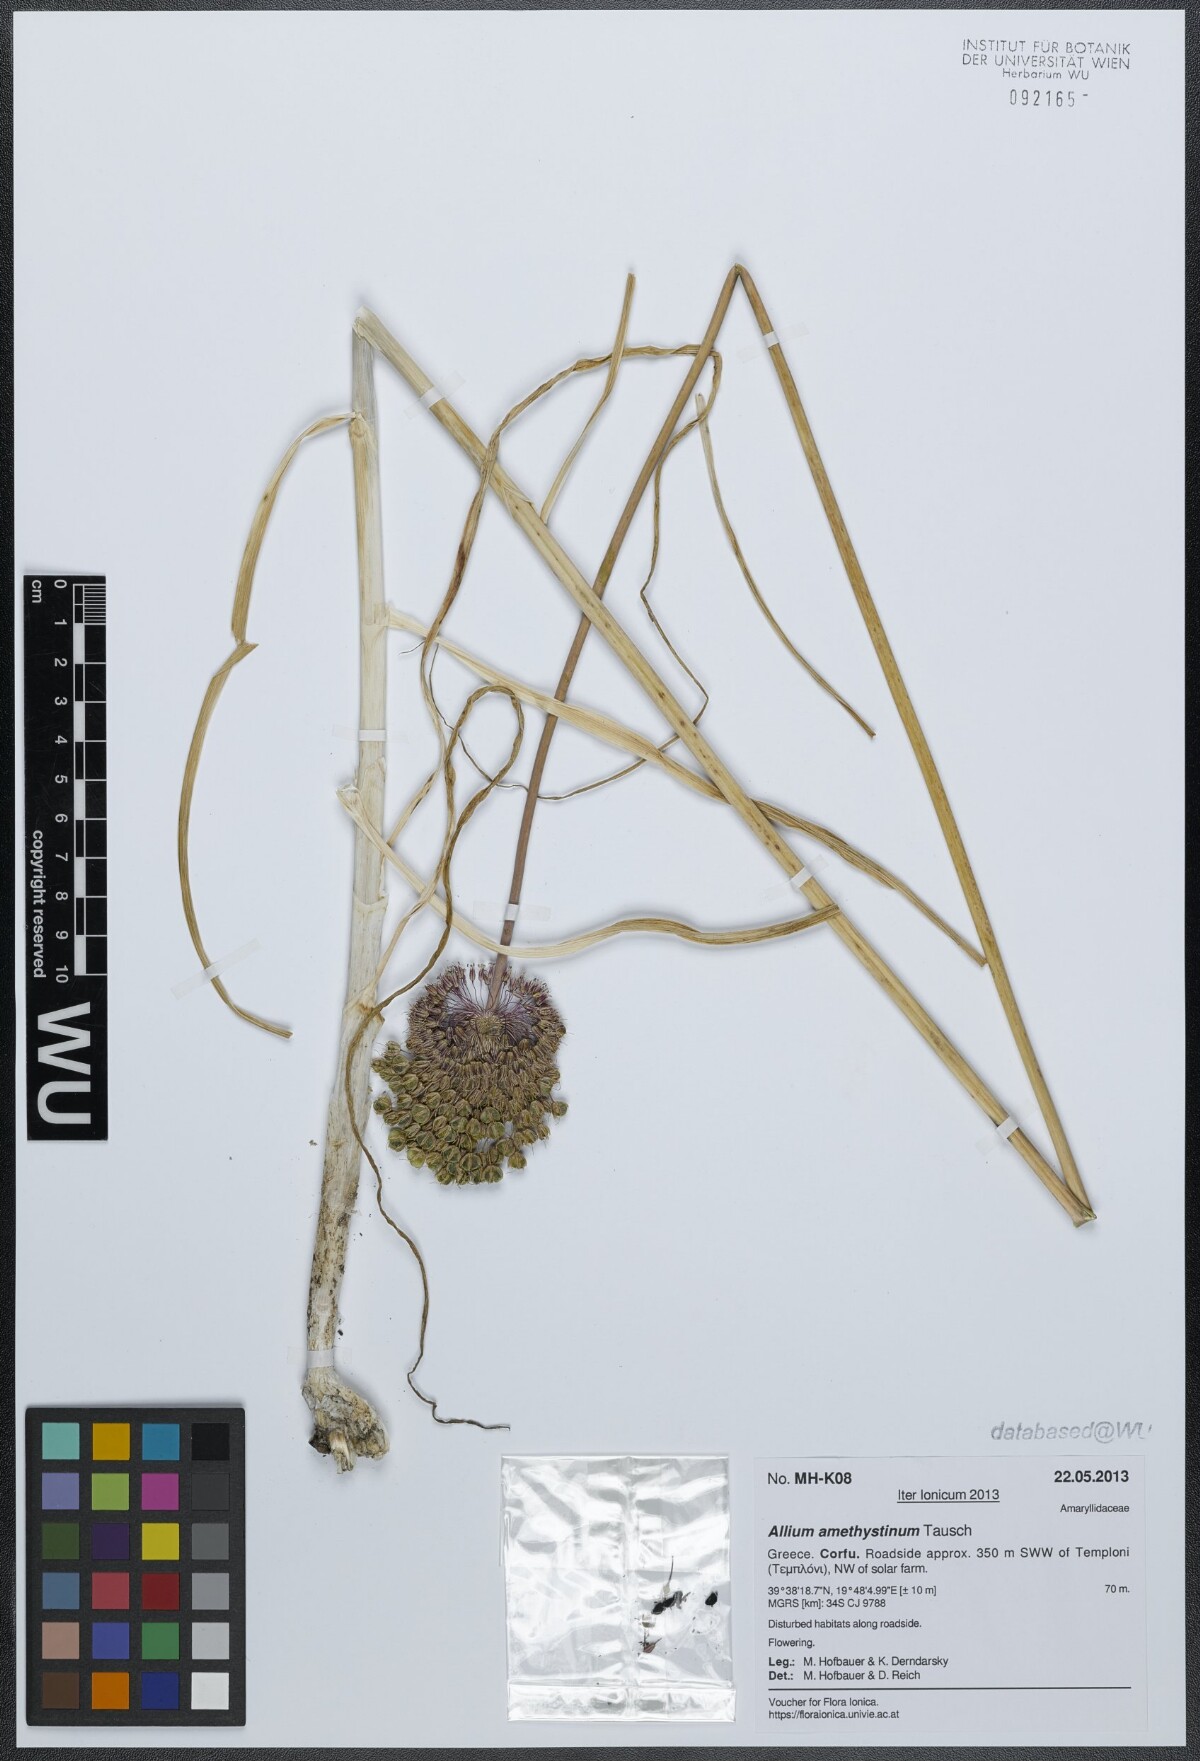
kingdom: Plantae
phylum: Tracheophyta
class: Liliopsida
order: Asparagales
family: Amaryllidaceae
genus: Allium
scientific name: Allium amethystinum
